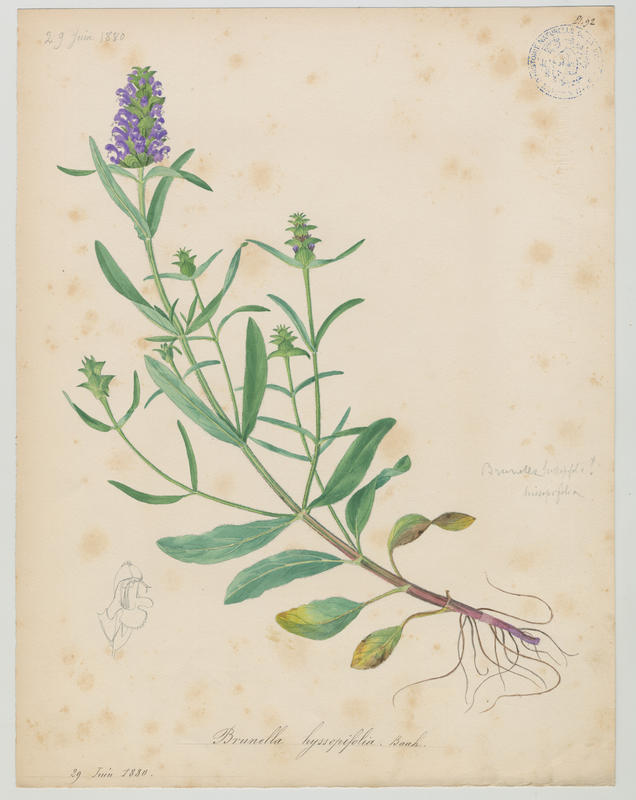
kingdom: Plantae
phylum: Tracheophyta
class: Magnoliopsida
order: Lamiales
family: Lamiaceae
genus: Prunella
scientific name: Prunella hyssopifolia
